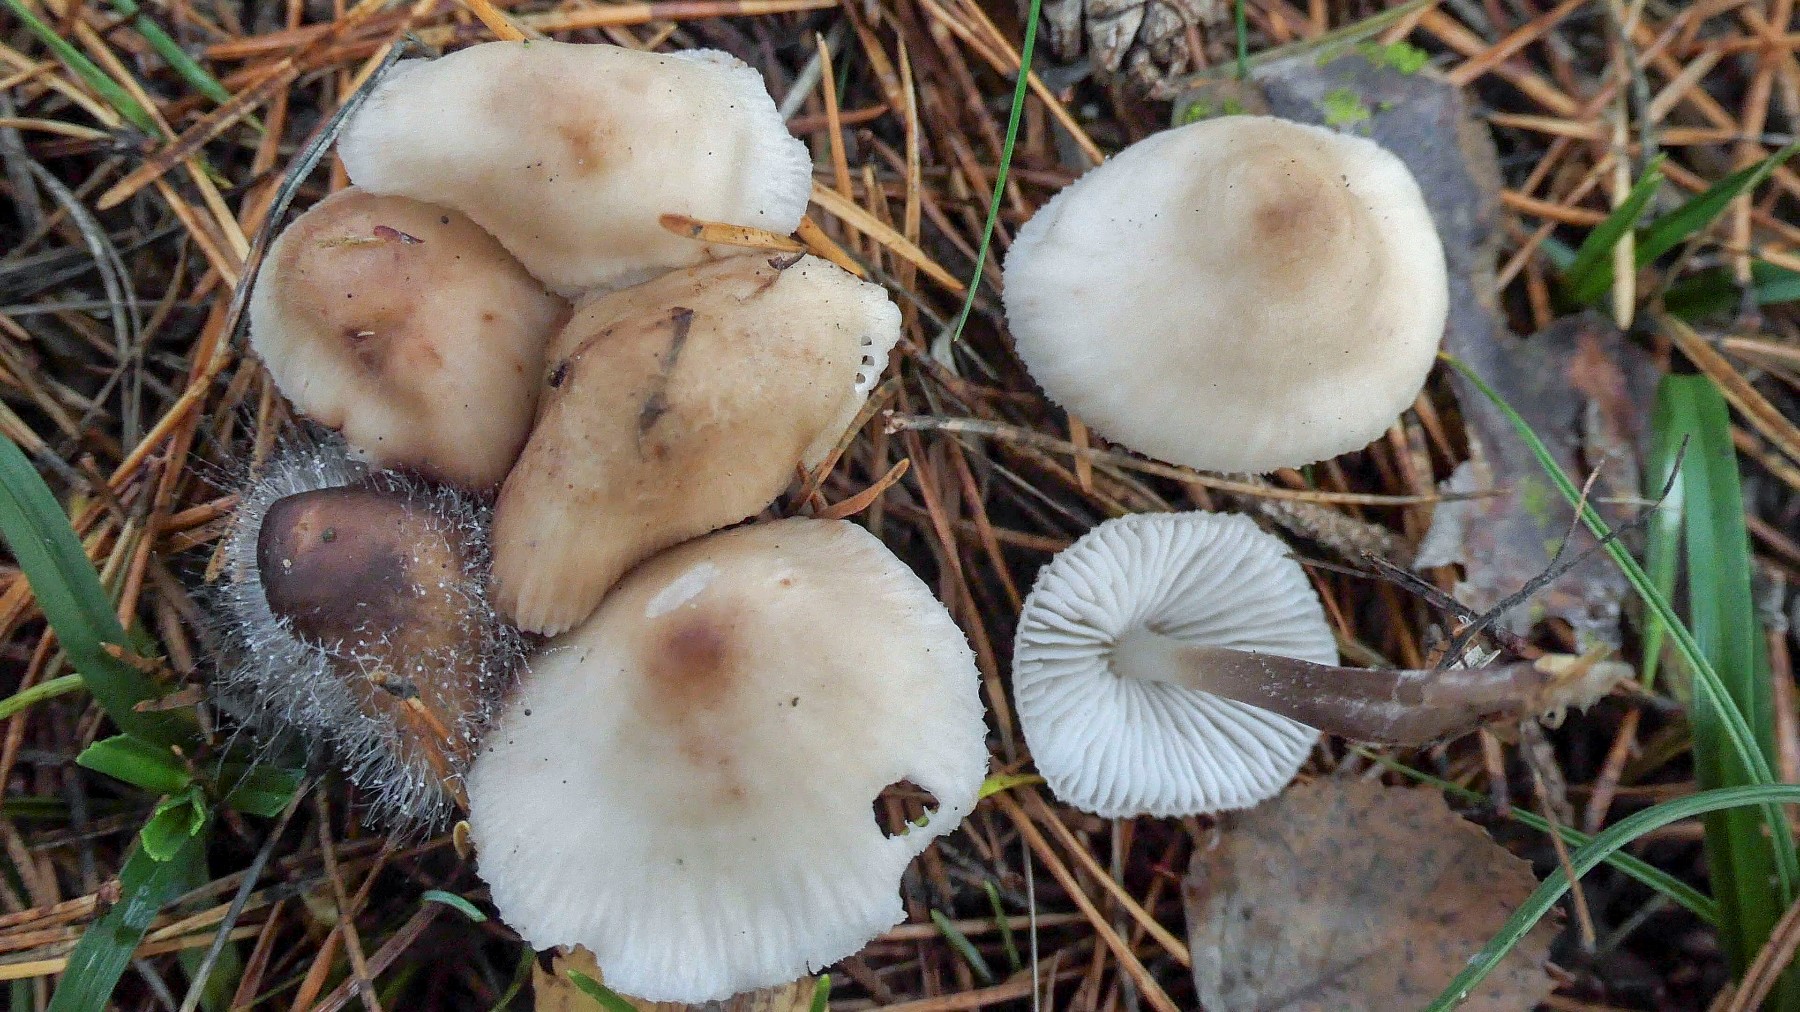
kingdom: Fungi
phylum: Basidiomycota
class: Agaricomycetes
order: Agaricales
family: Mycenaceae
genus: Mycena
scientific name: Mycena zephirus
